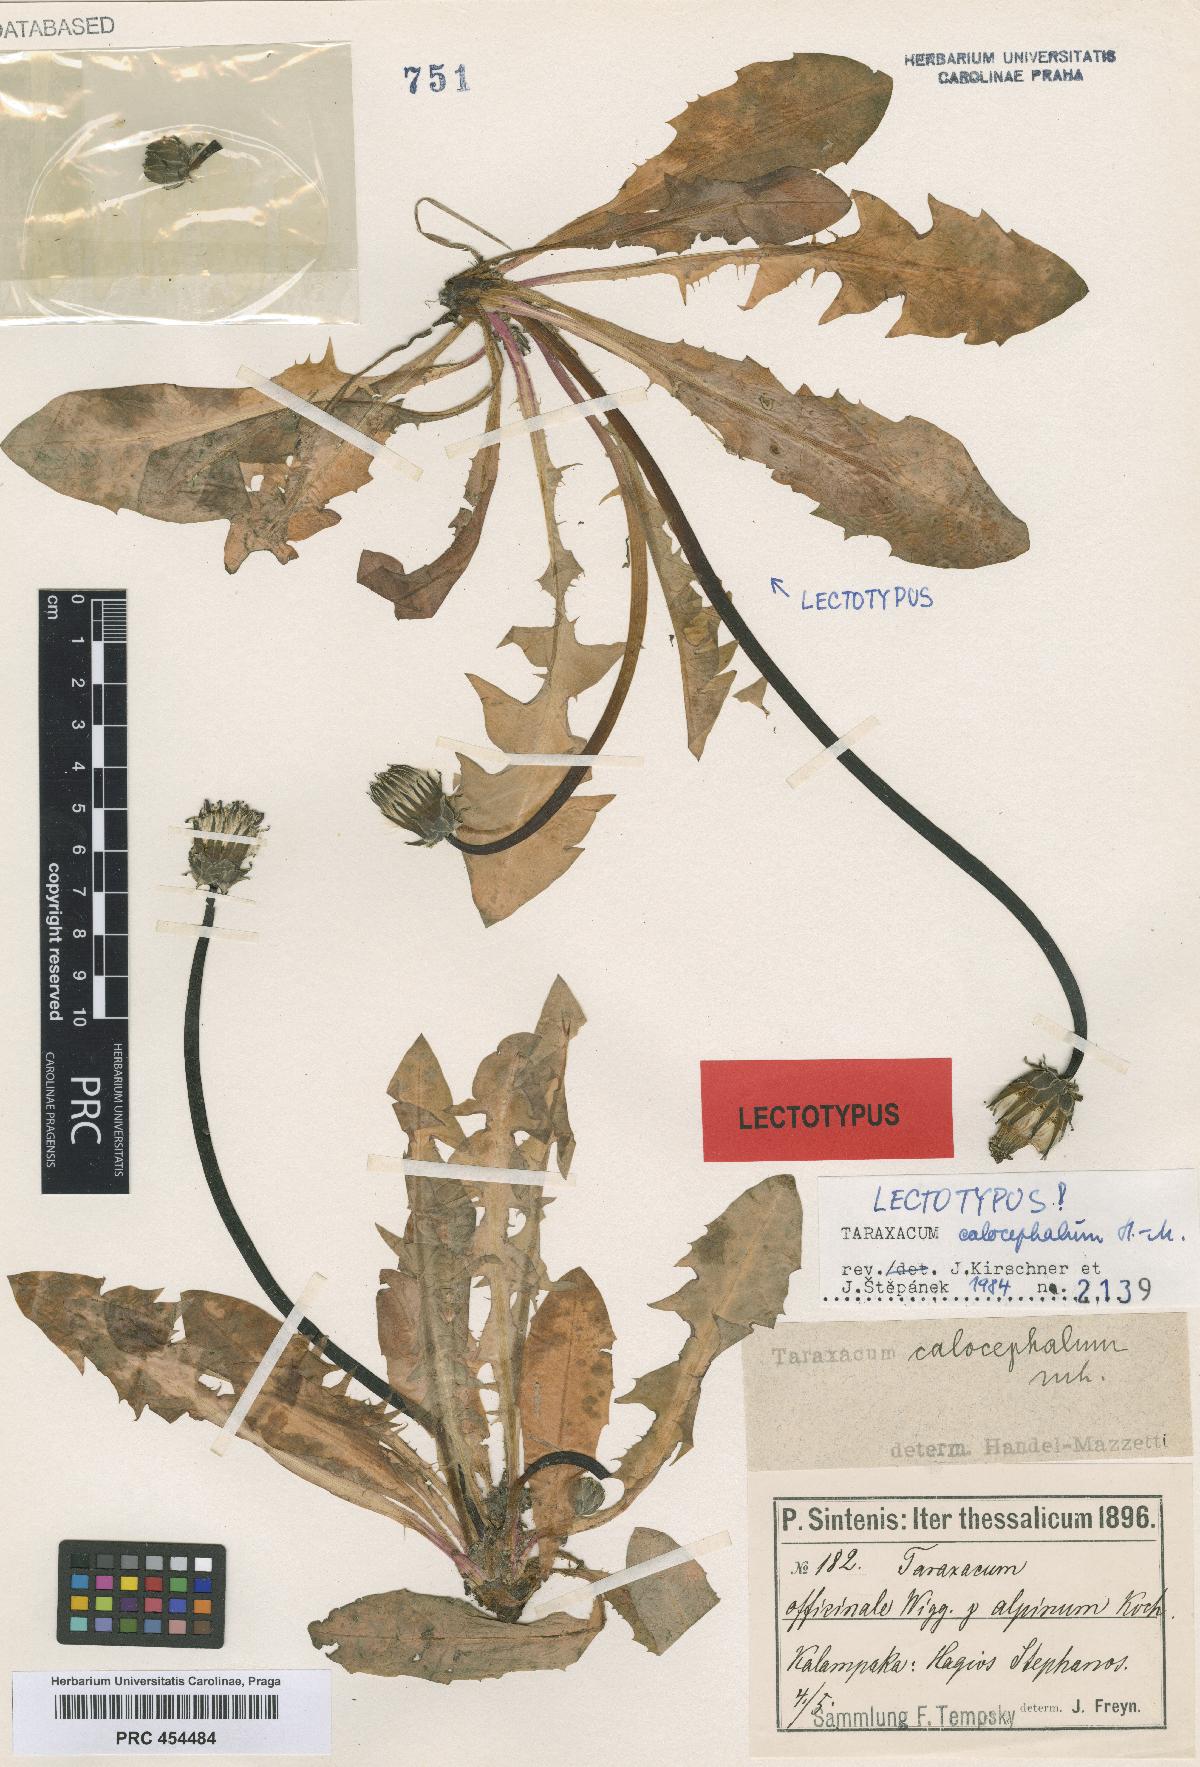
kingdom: Plantae
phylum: Tracheophyta
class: Magnoliopsida
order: Asterales
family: Asteraceae
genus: Taraxacum
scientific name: Taraxacum calocephalum
